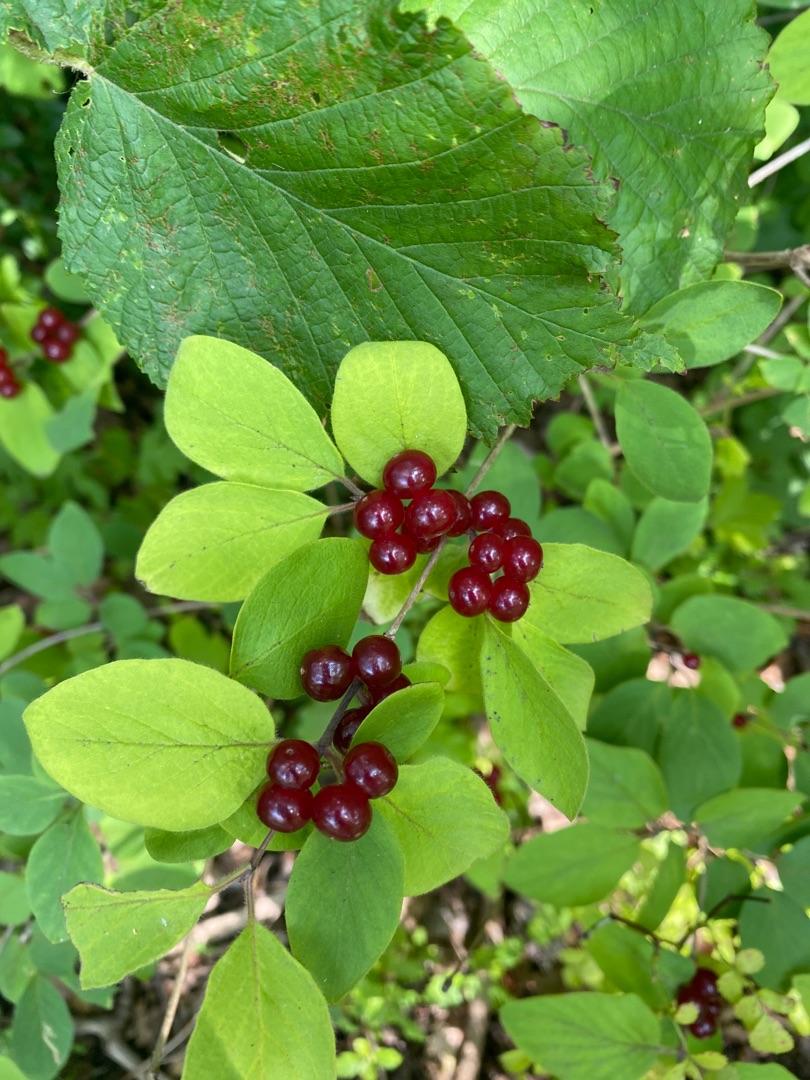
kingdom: Plantae
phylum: Tracheophyta
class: Magnoliopsida
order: Dipsacales
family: Caprifoliaceae
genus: Lonicera
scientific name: Lonicera xylosteum
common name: Dunet gedeblad
